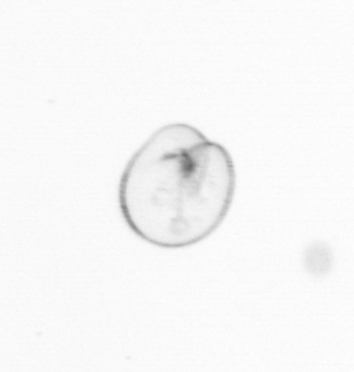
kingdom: Chromista
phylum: Myzozoa
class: Dinophyceae
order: Noctilucales
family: Noctilucaceae
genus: Noctiluca
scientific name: Noctiluca scintillans
